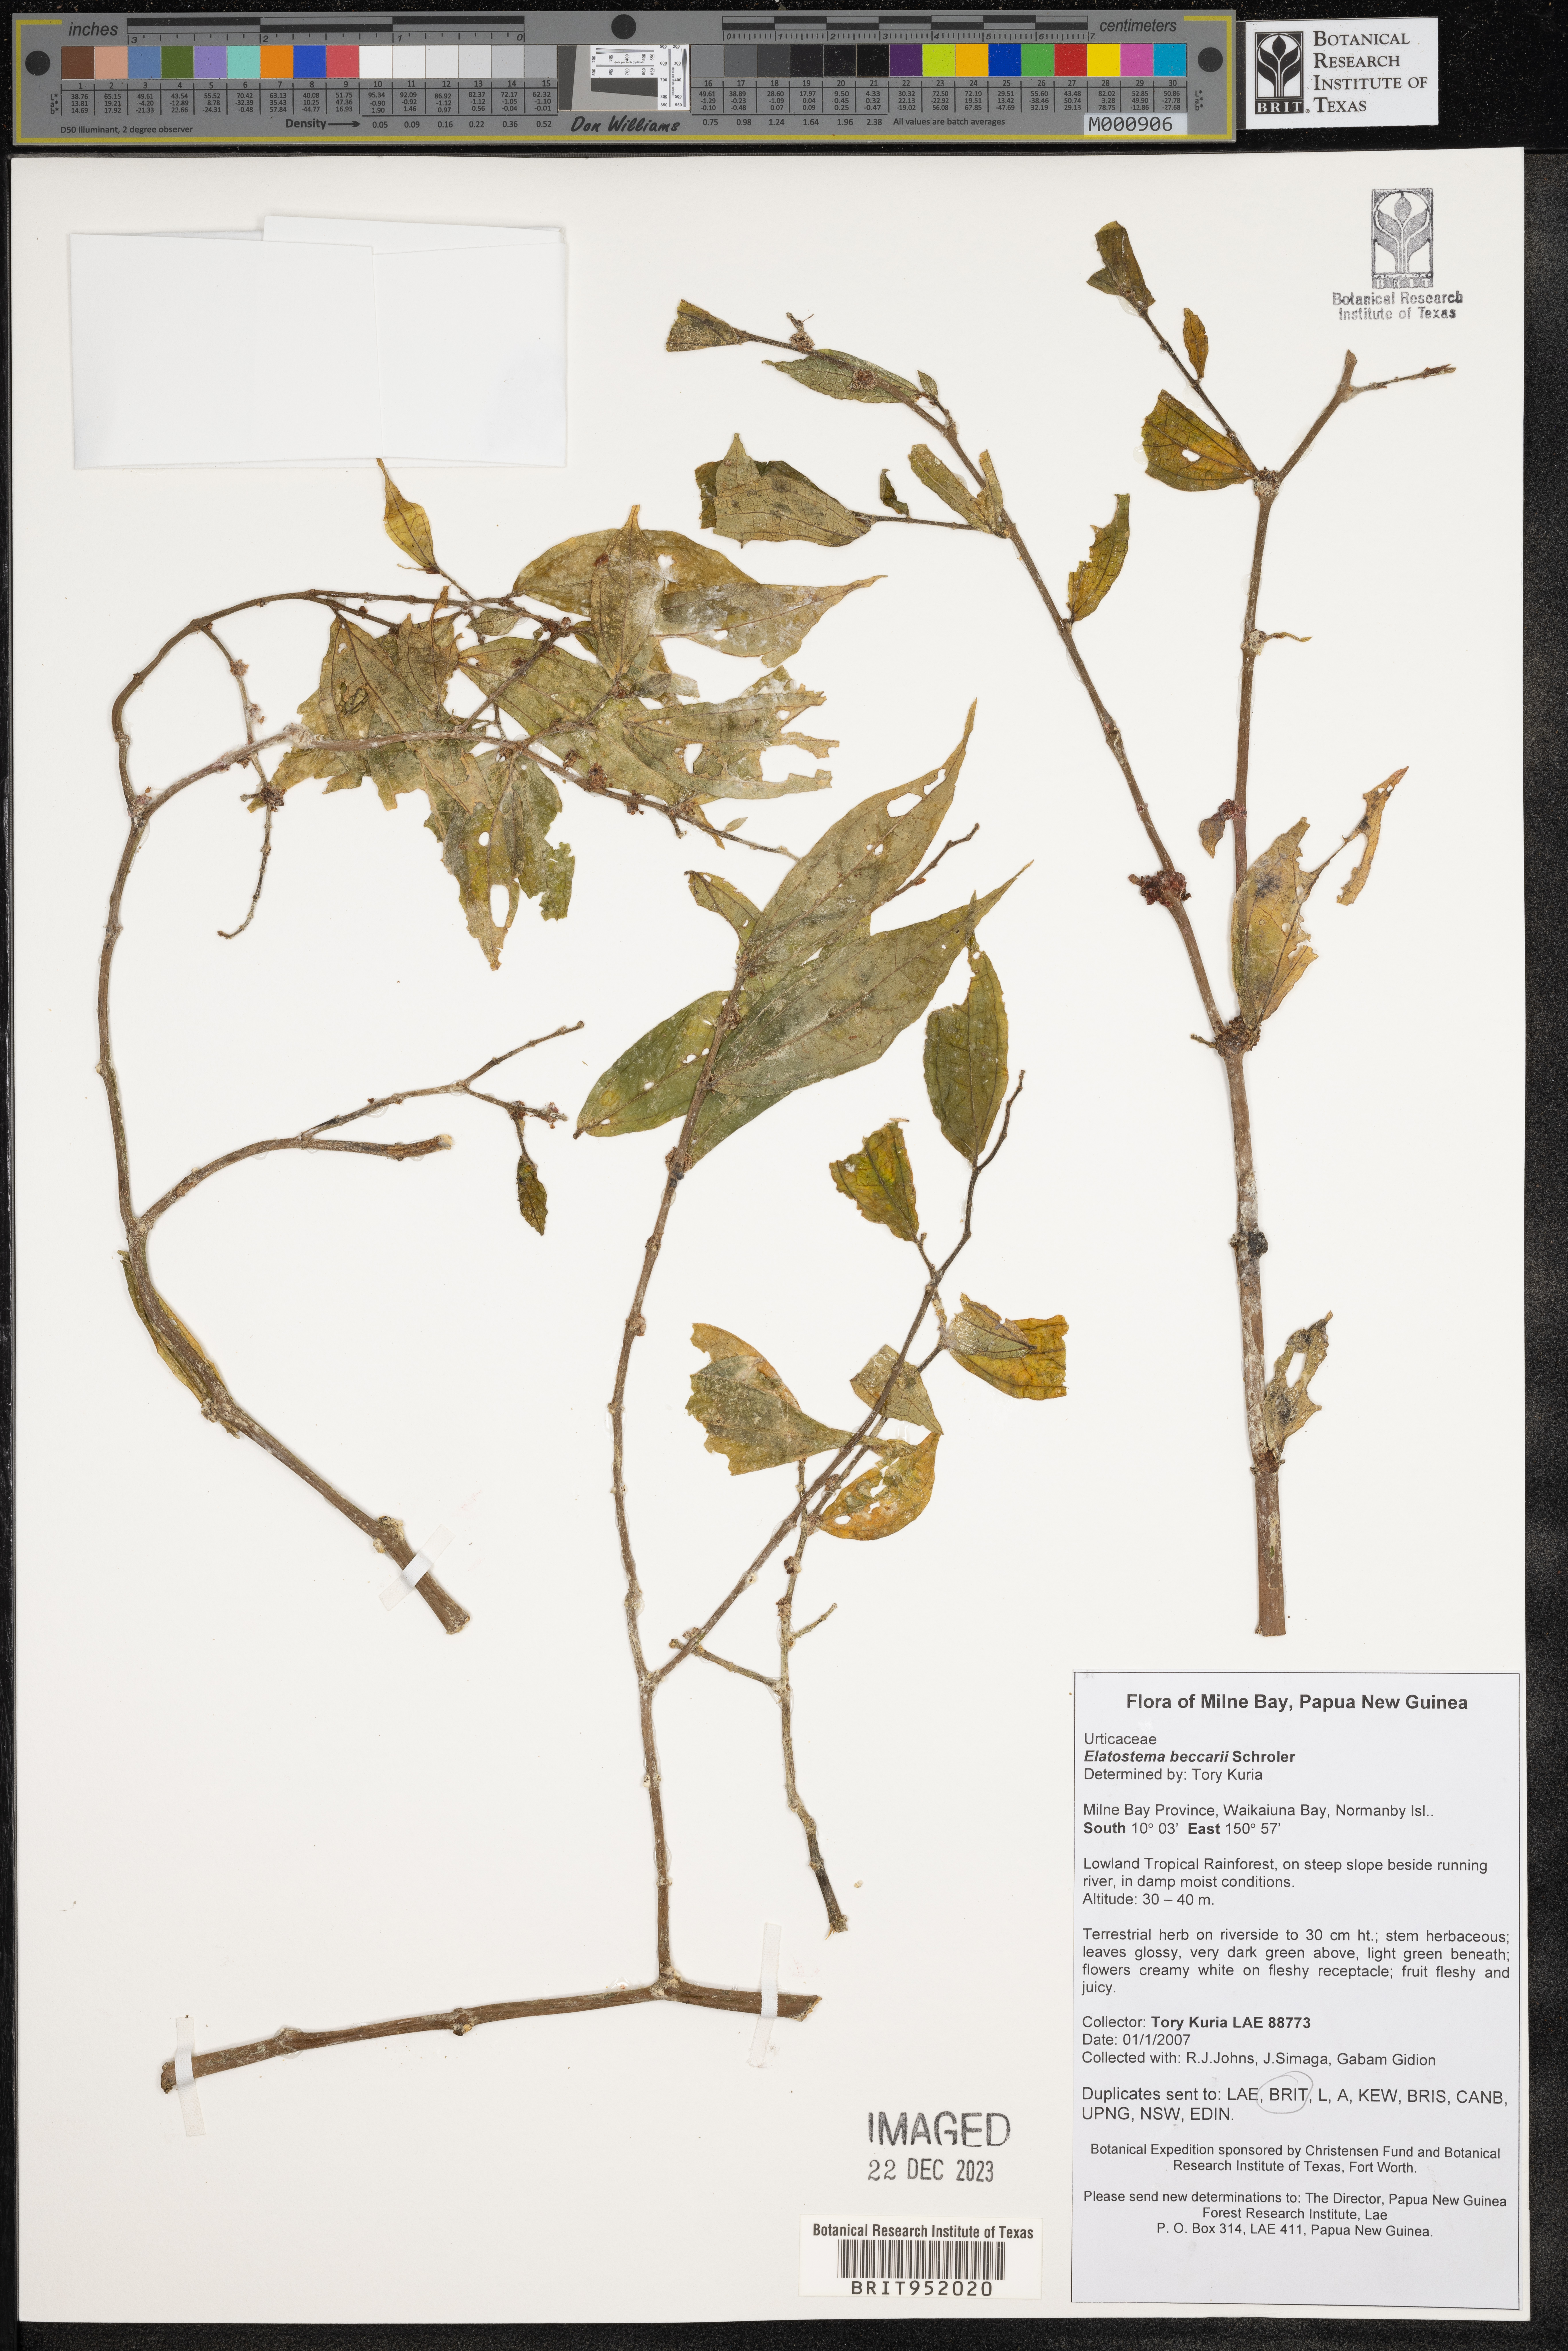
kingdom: Plantae
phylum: Tracheophyta
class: Magnoliopsida
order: Rosales
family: Urticaceae
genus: Elatostema
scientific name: Elatostema
